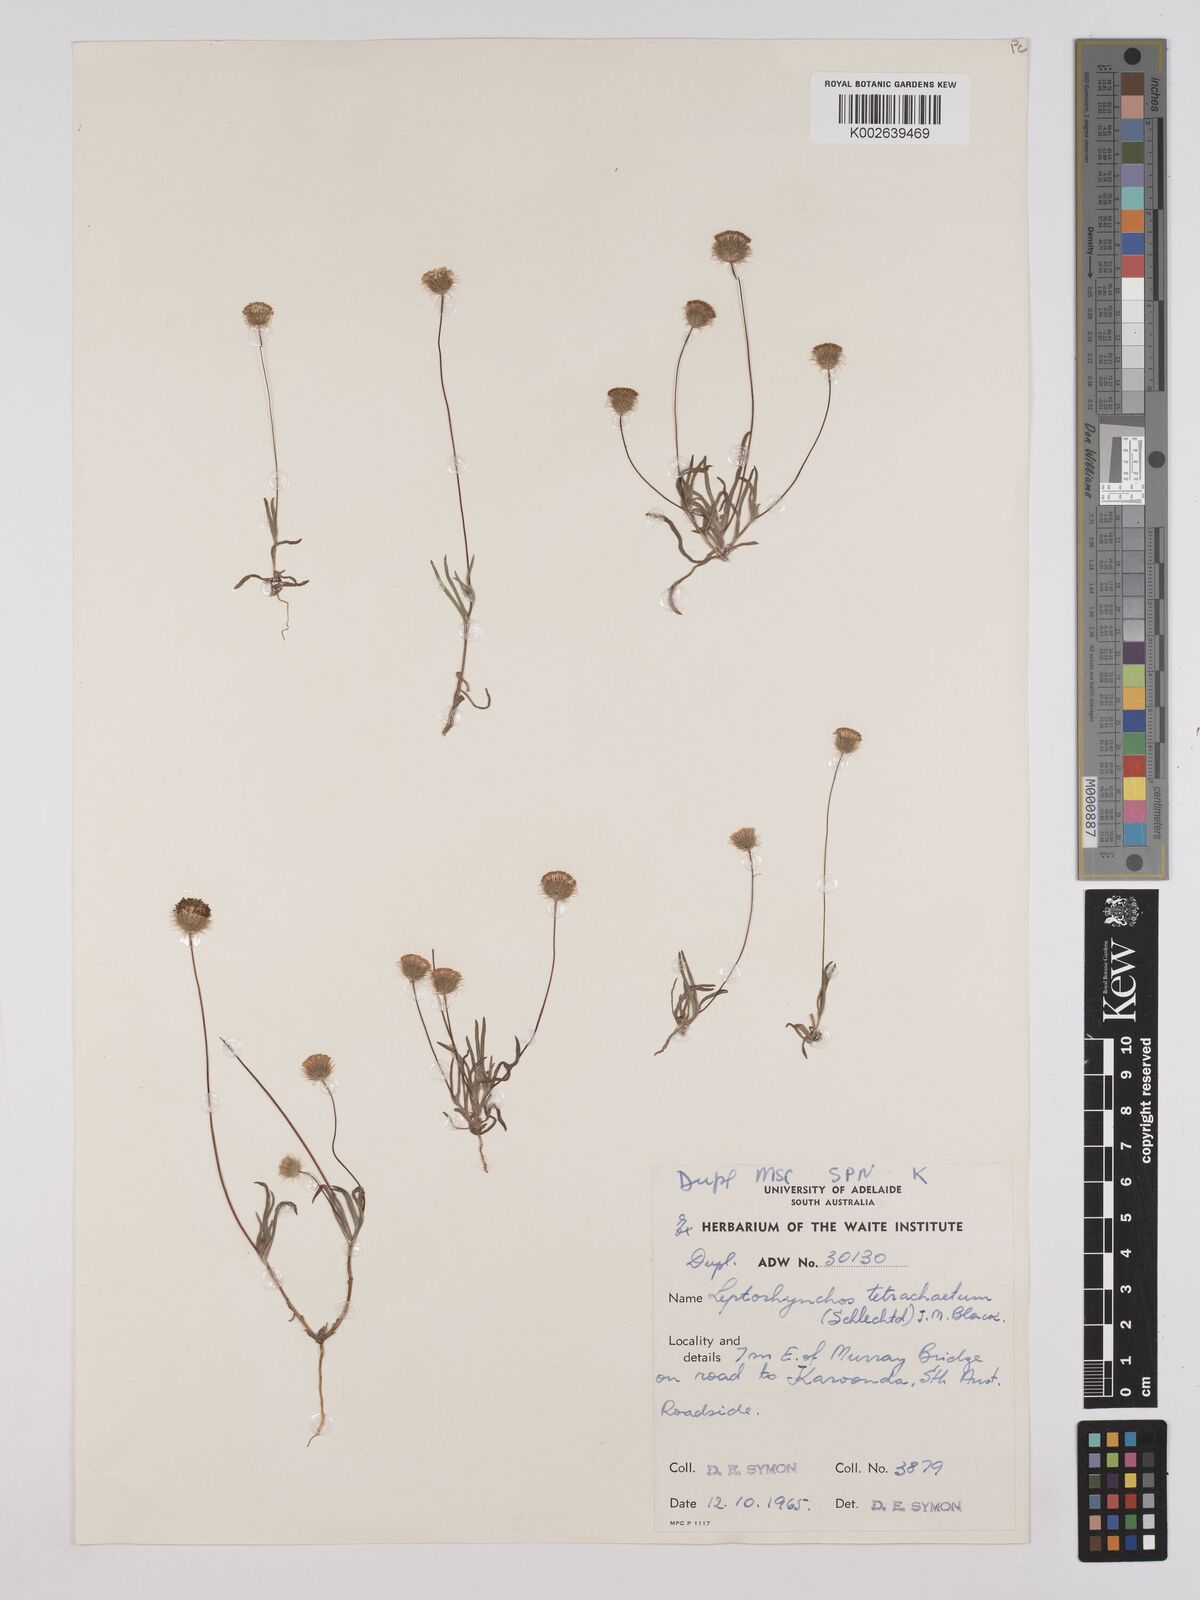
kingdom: Plantae
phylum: Tracheophyta
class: Magnoliopsida
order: Asterales
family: Asteraceae
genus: Leptorhynchos
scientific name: Leptorhynchos tetrachaetus
